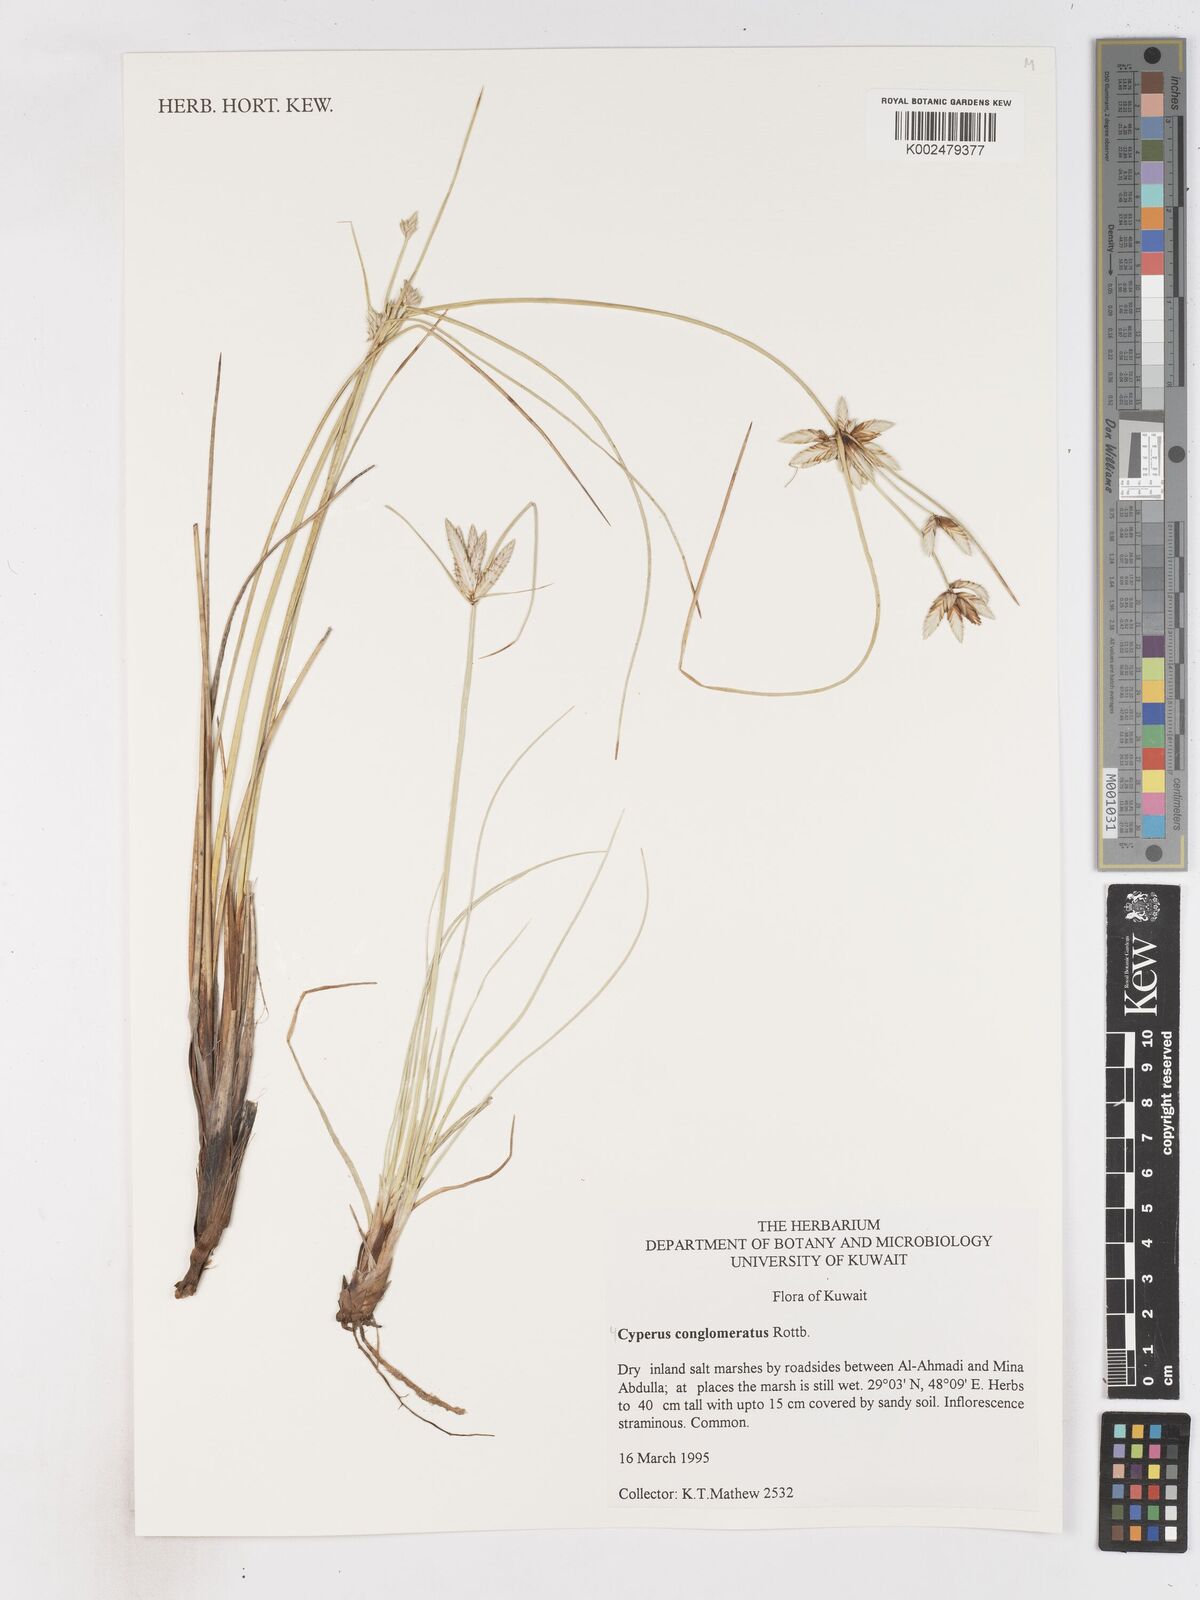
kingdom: Plantae
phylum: Tracheophyta
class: Liliopsida
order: Poales
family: Cyperaceae
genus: Cyperus
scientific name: Cyperus conglomeratus
